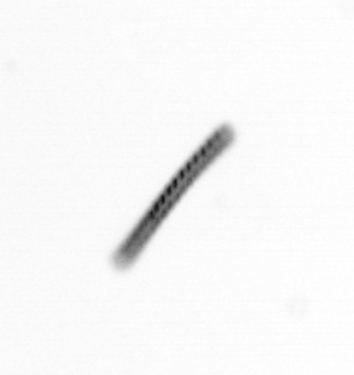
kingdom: Chromista
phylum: Ochrophyta
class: Bacillariophyceae
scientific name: Bacillariophyceae
